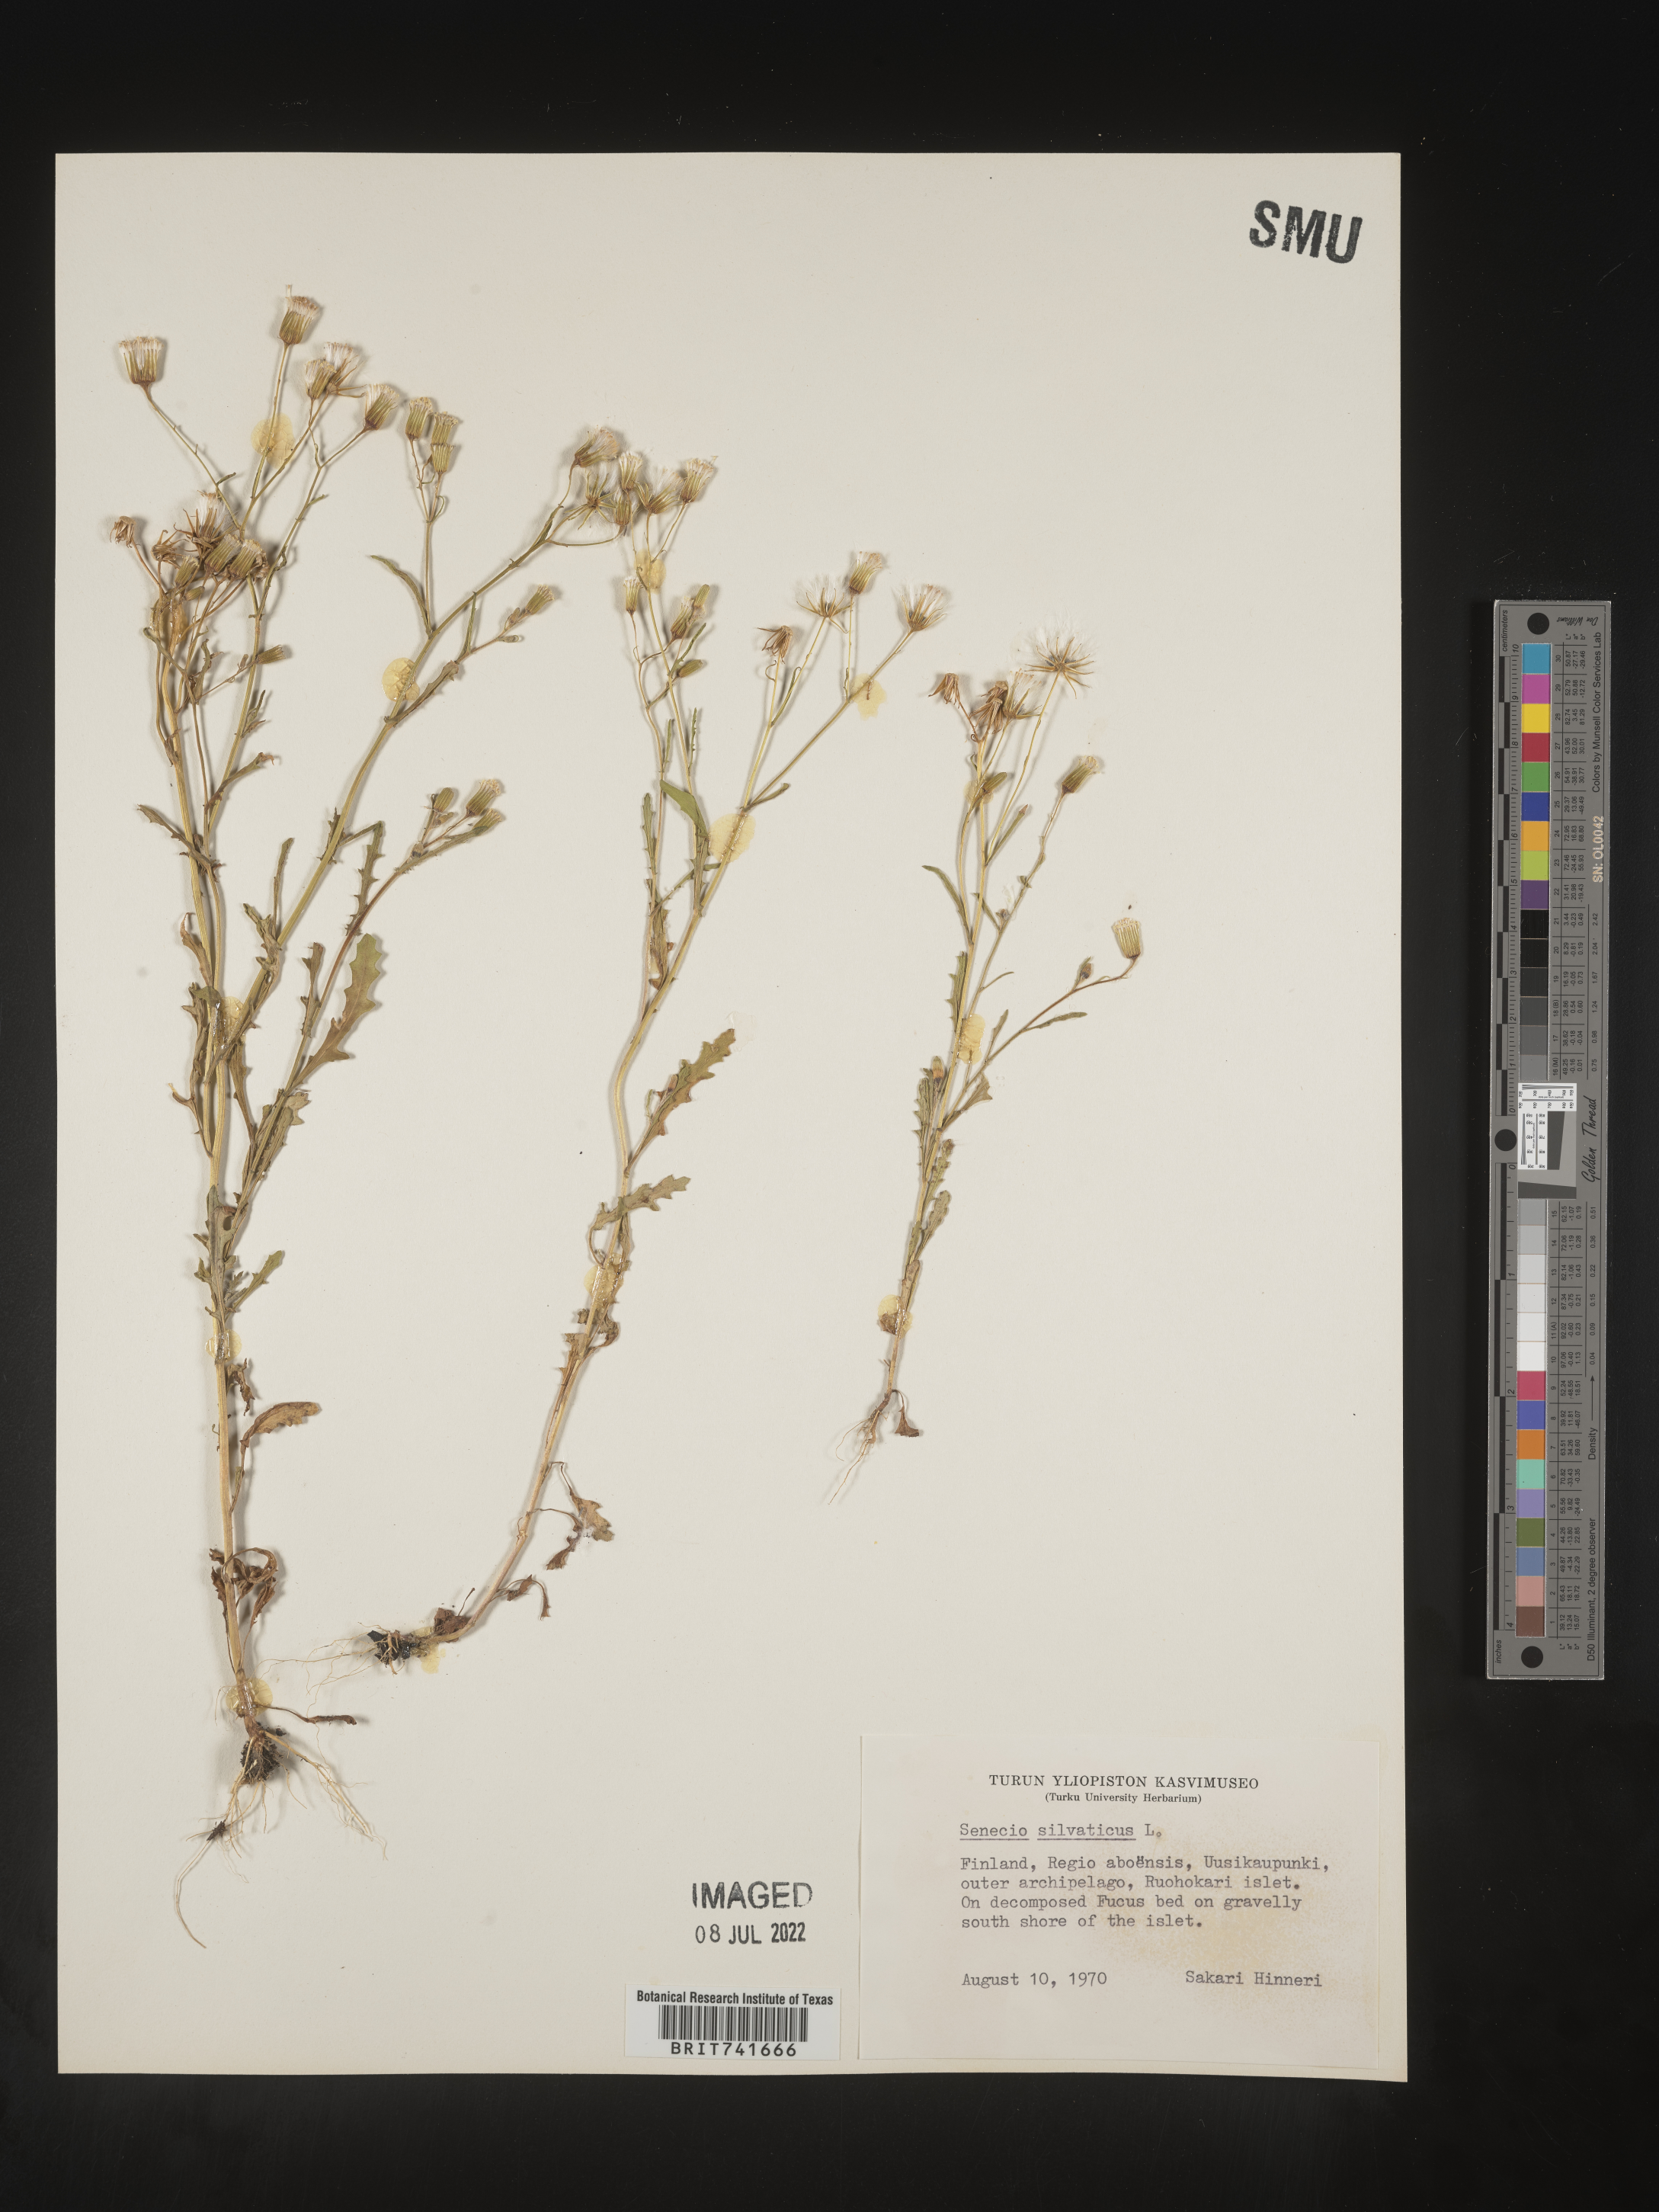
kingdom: Plantae
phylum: Tracheophyta
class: Magnoliopsida
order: Asterales
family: Asteraceae
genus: Senecio
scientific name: Senecio
